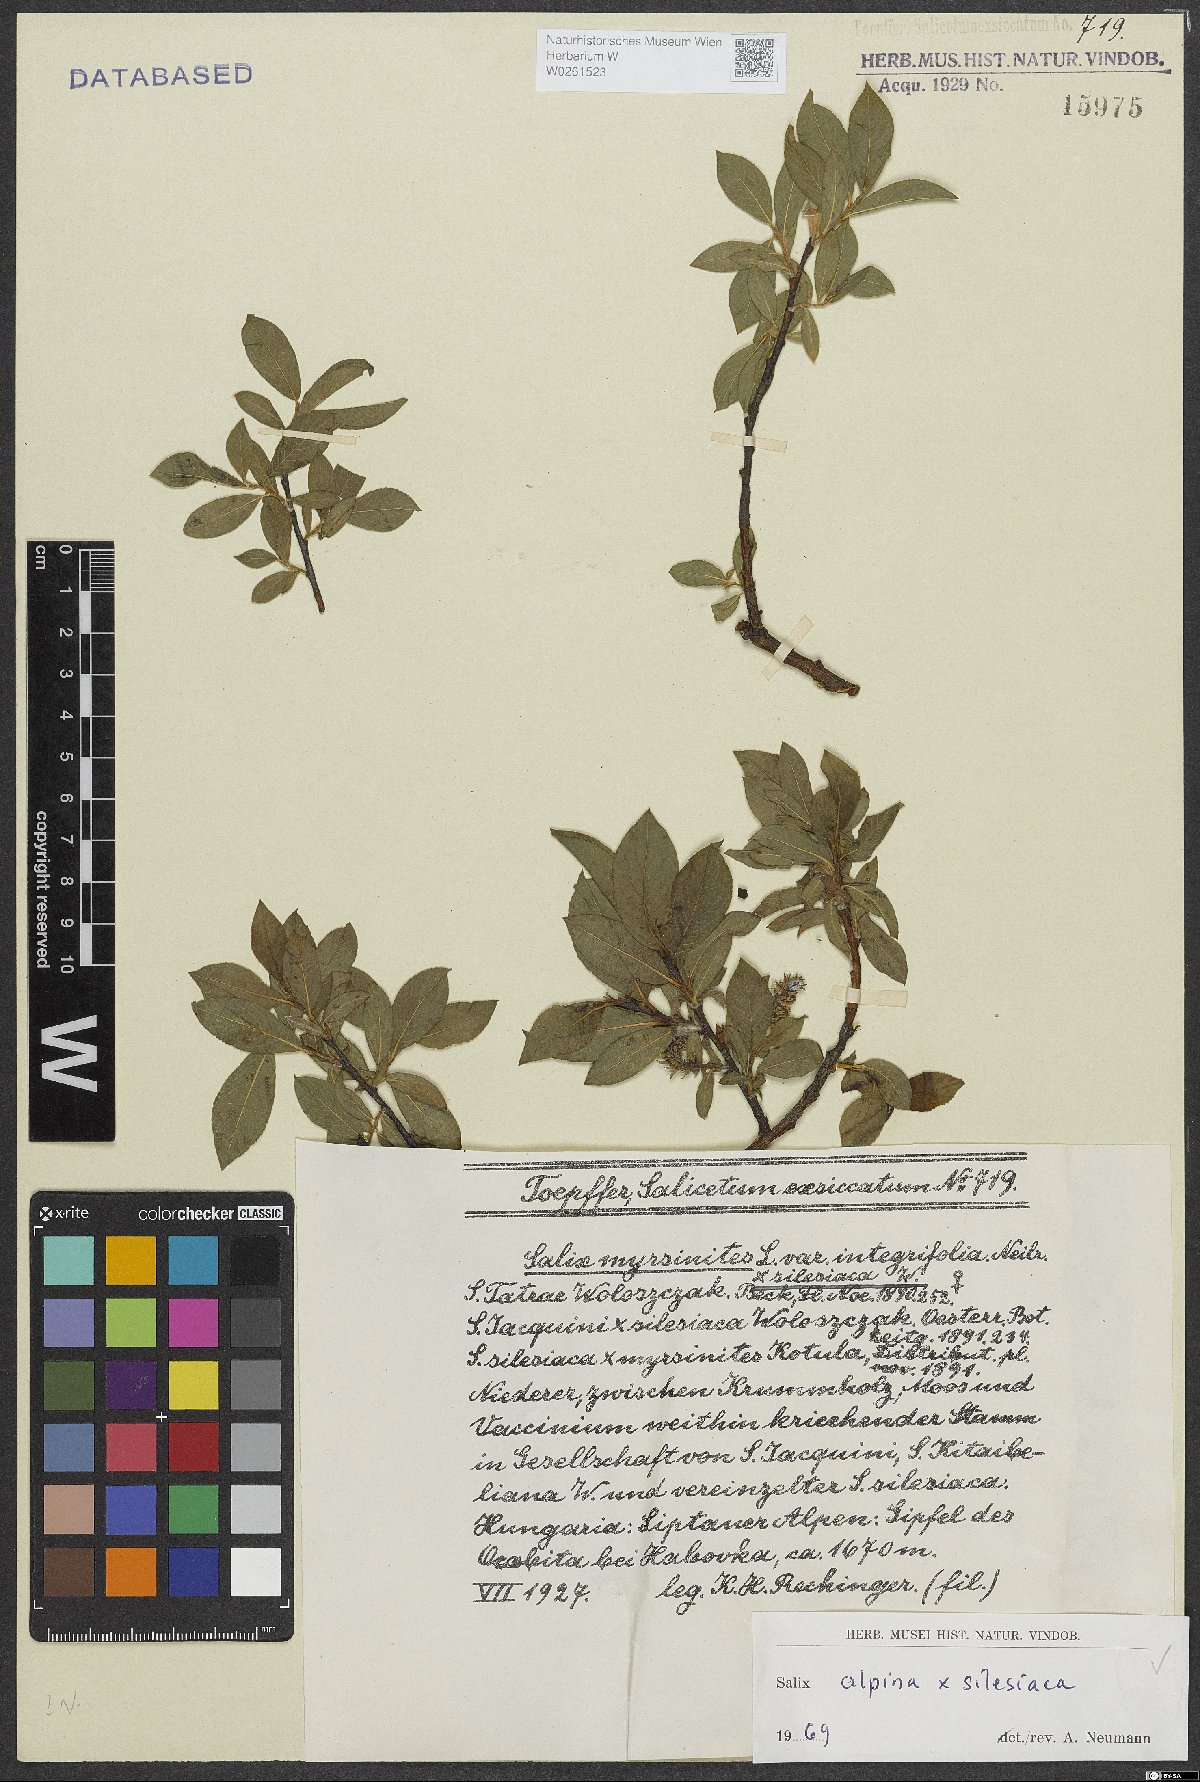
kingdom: Plantae
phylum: Tracheophyta
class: Magnoliopsida
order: Malpighiales
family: Salicaceae
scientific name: Salicaceae
